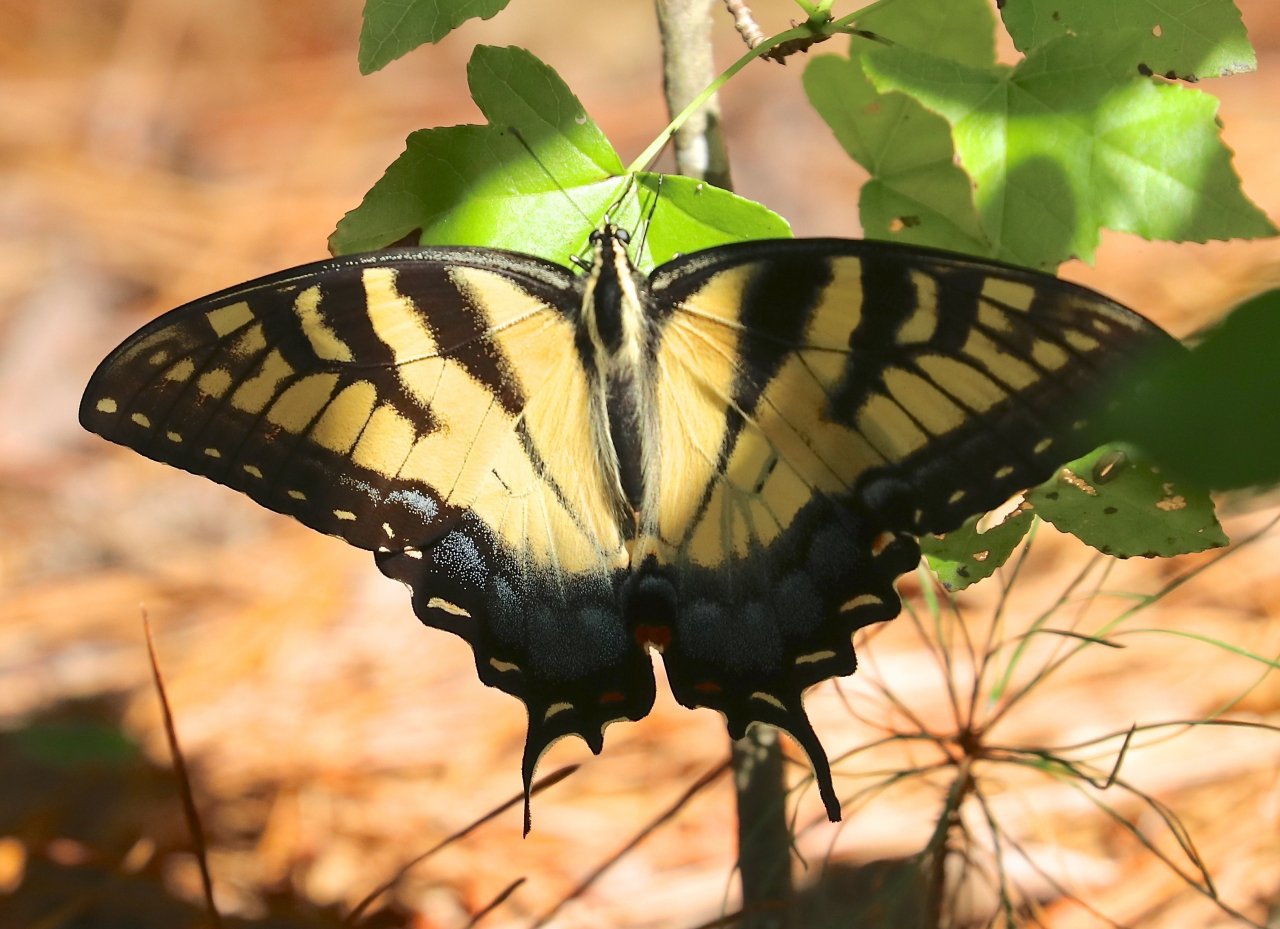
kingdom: Animalia
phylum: Arthropoda
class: Insecta
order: Lepidoptera
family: Papilionidae
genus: Pterourus
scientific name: Pterourus glaucus
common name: Eastern Tiger Swallowtail
